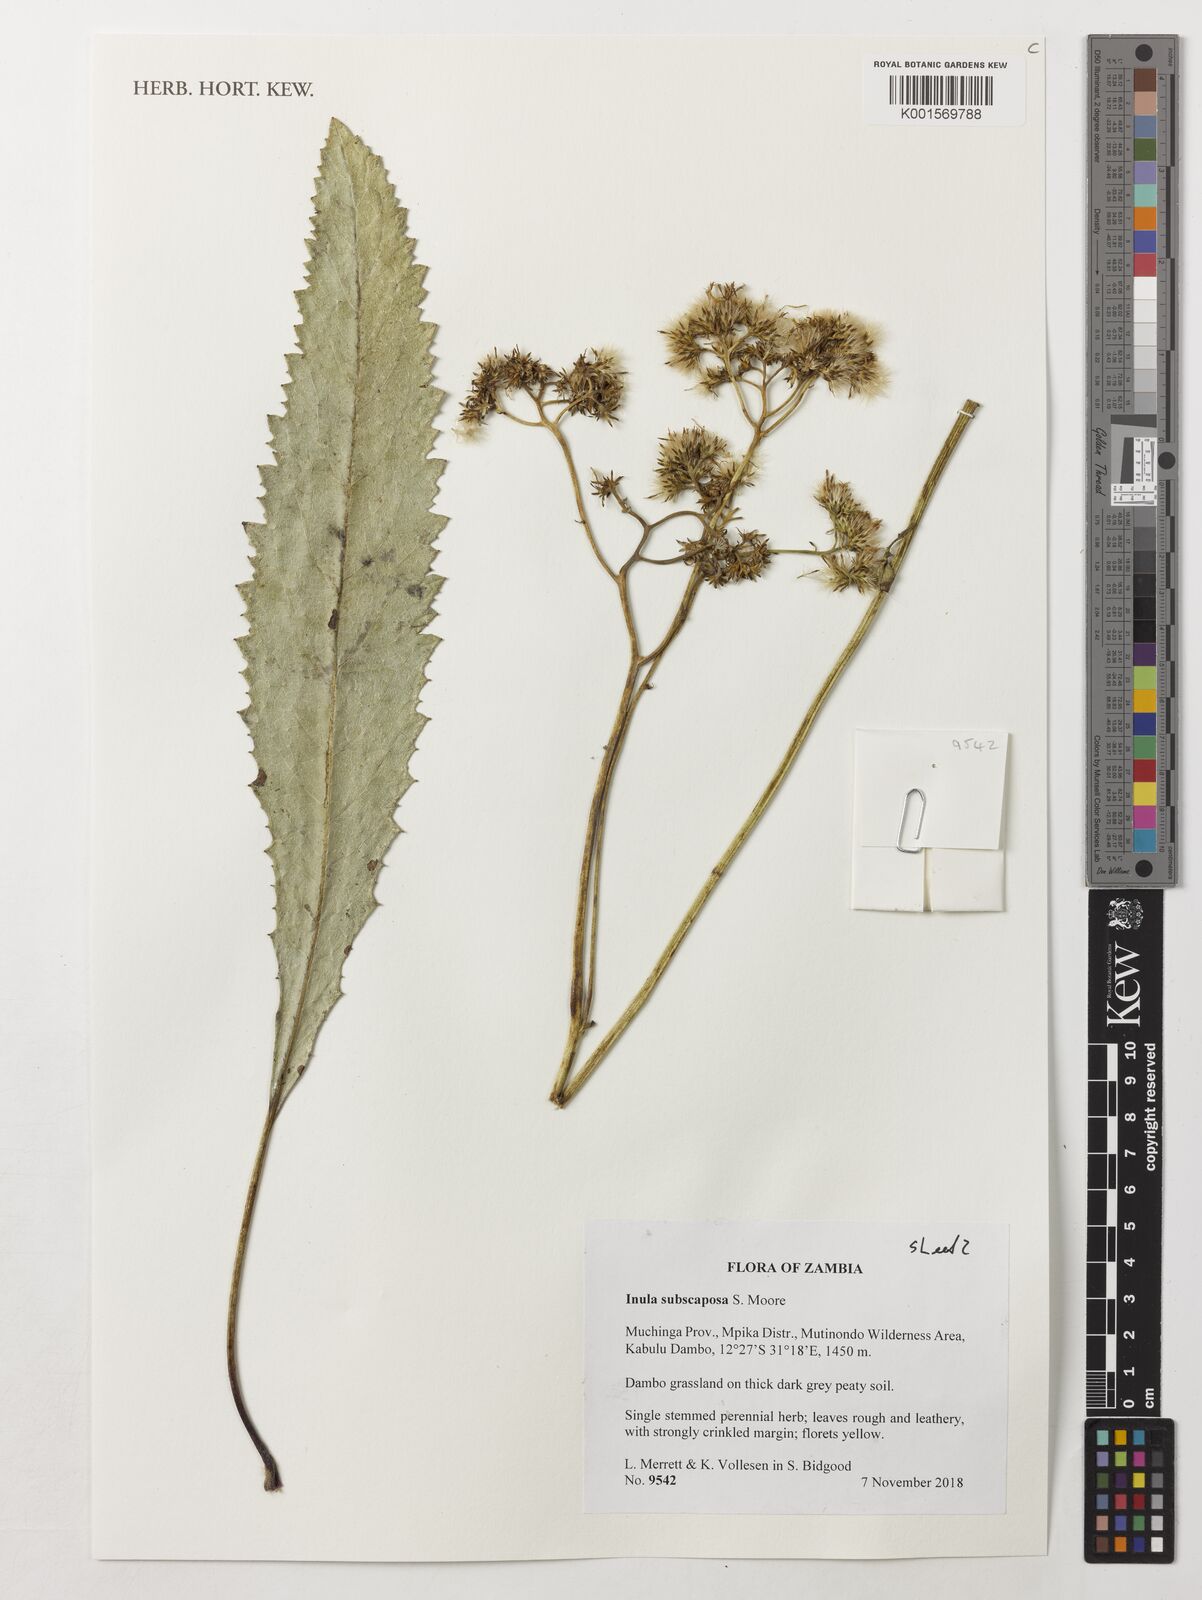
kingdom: Plantae
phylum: Tracheophyta
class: Magnoliopsida
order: Asterales
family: Asteraceae
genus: Monactinocephalus
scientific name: Monactinocephalus paniculatus
